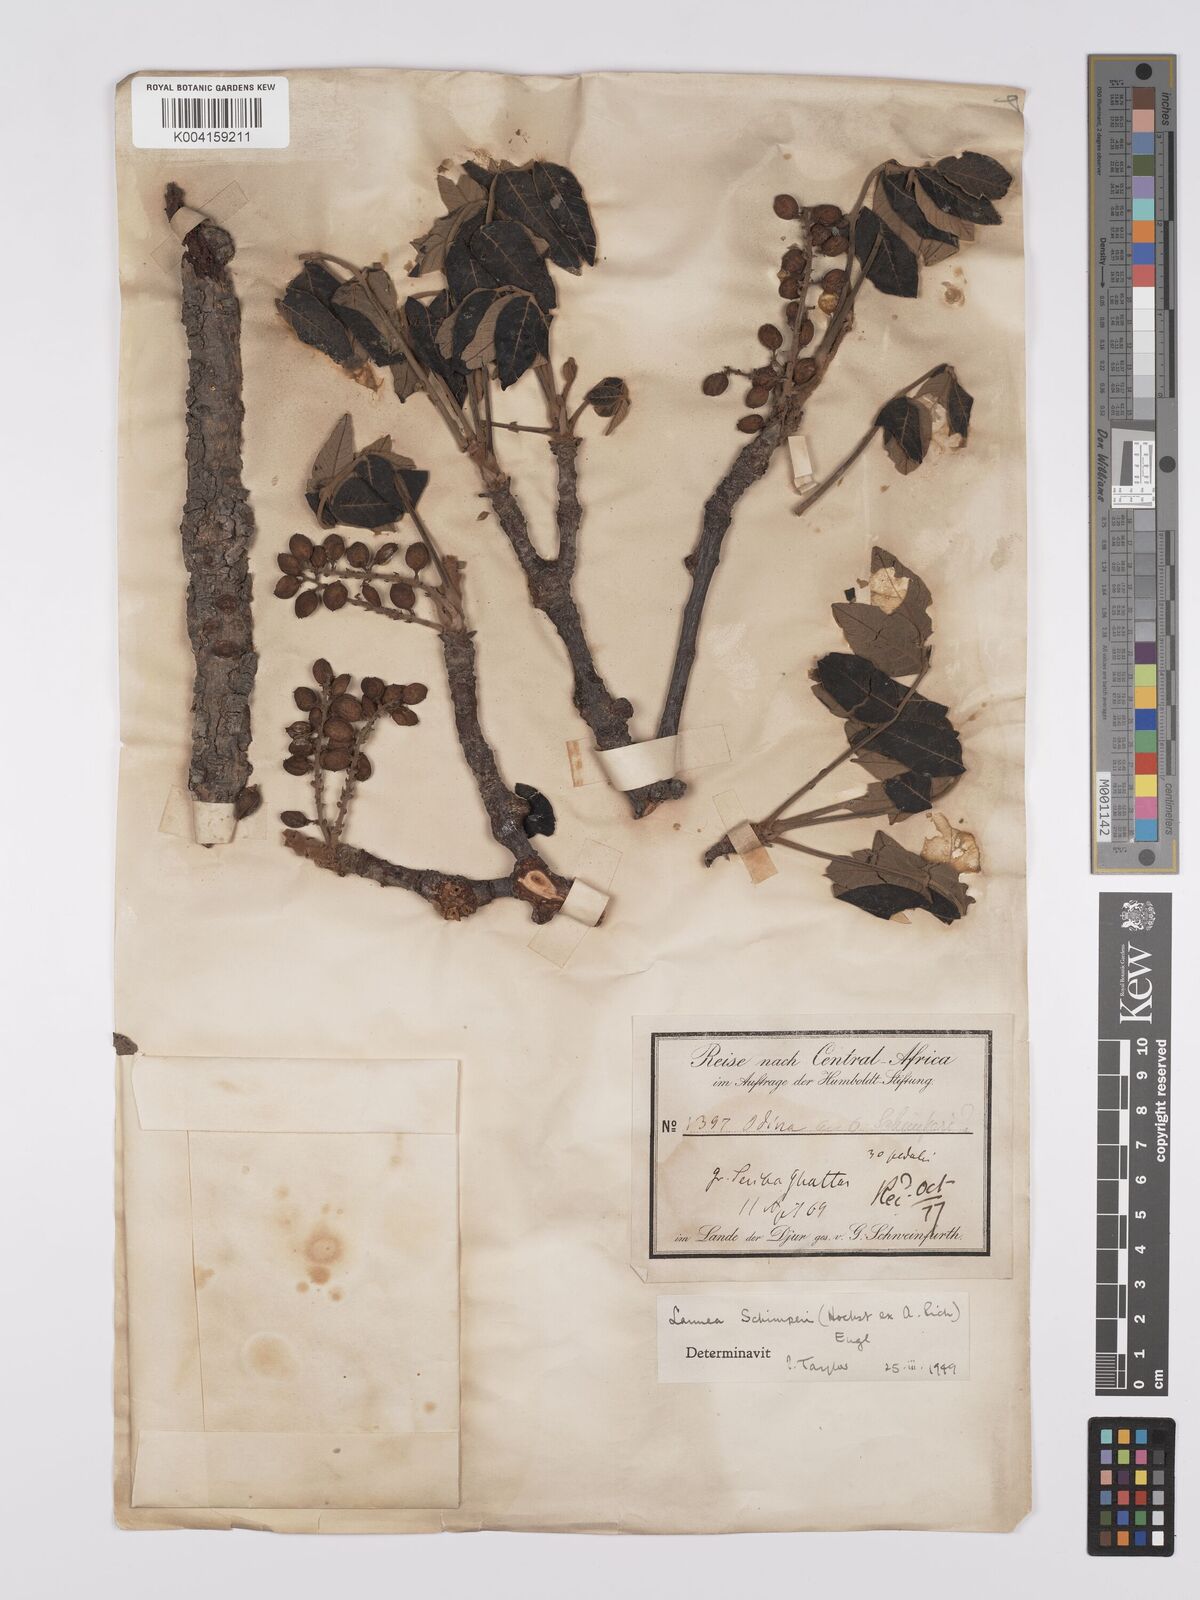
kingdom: Plantae
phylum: Tracheophyta
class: Magnoliopsida
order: Sapindales
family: Anacardiaceae
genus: Lannea
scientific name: Lannea schimperi
